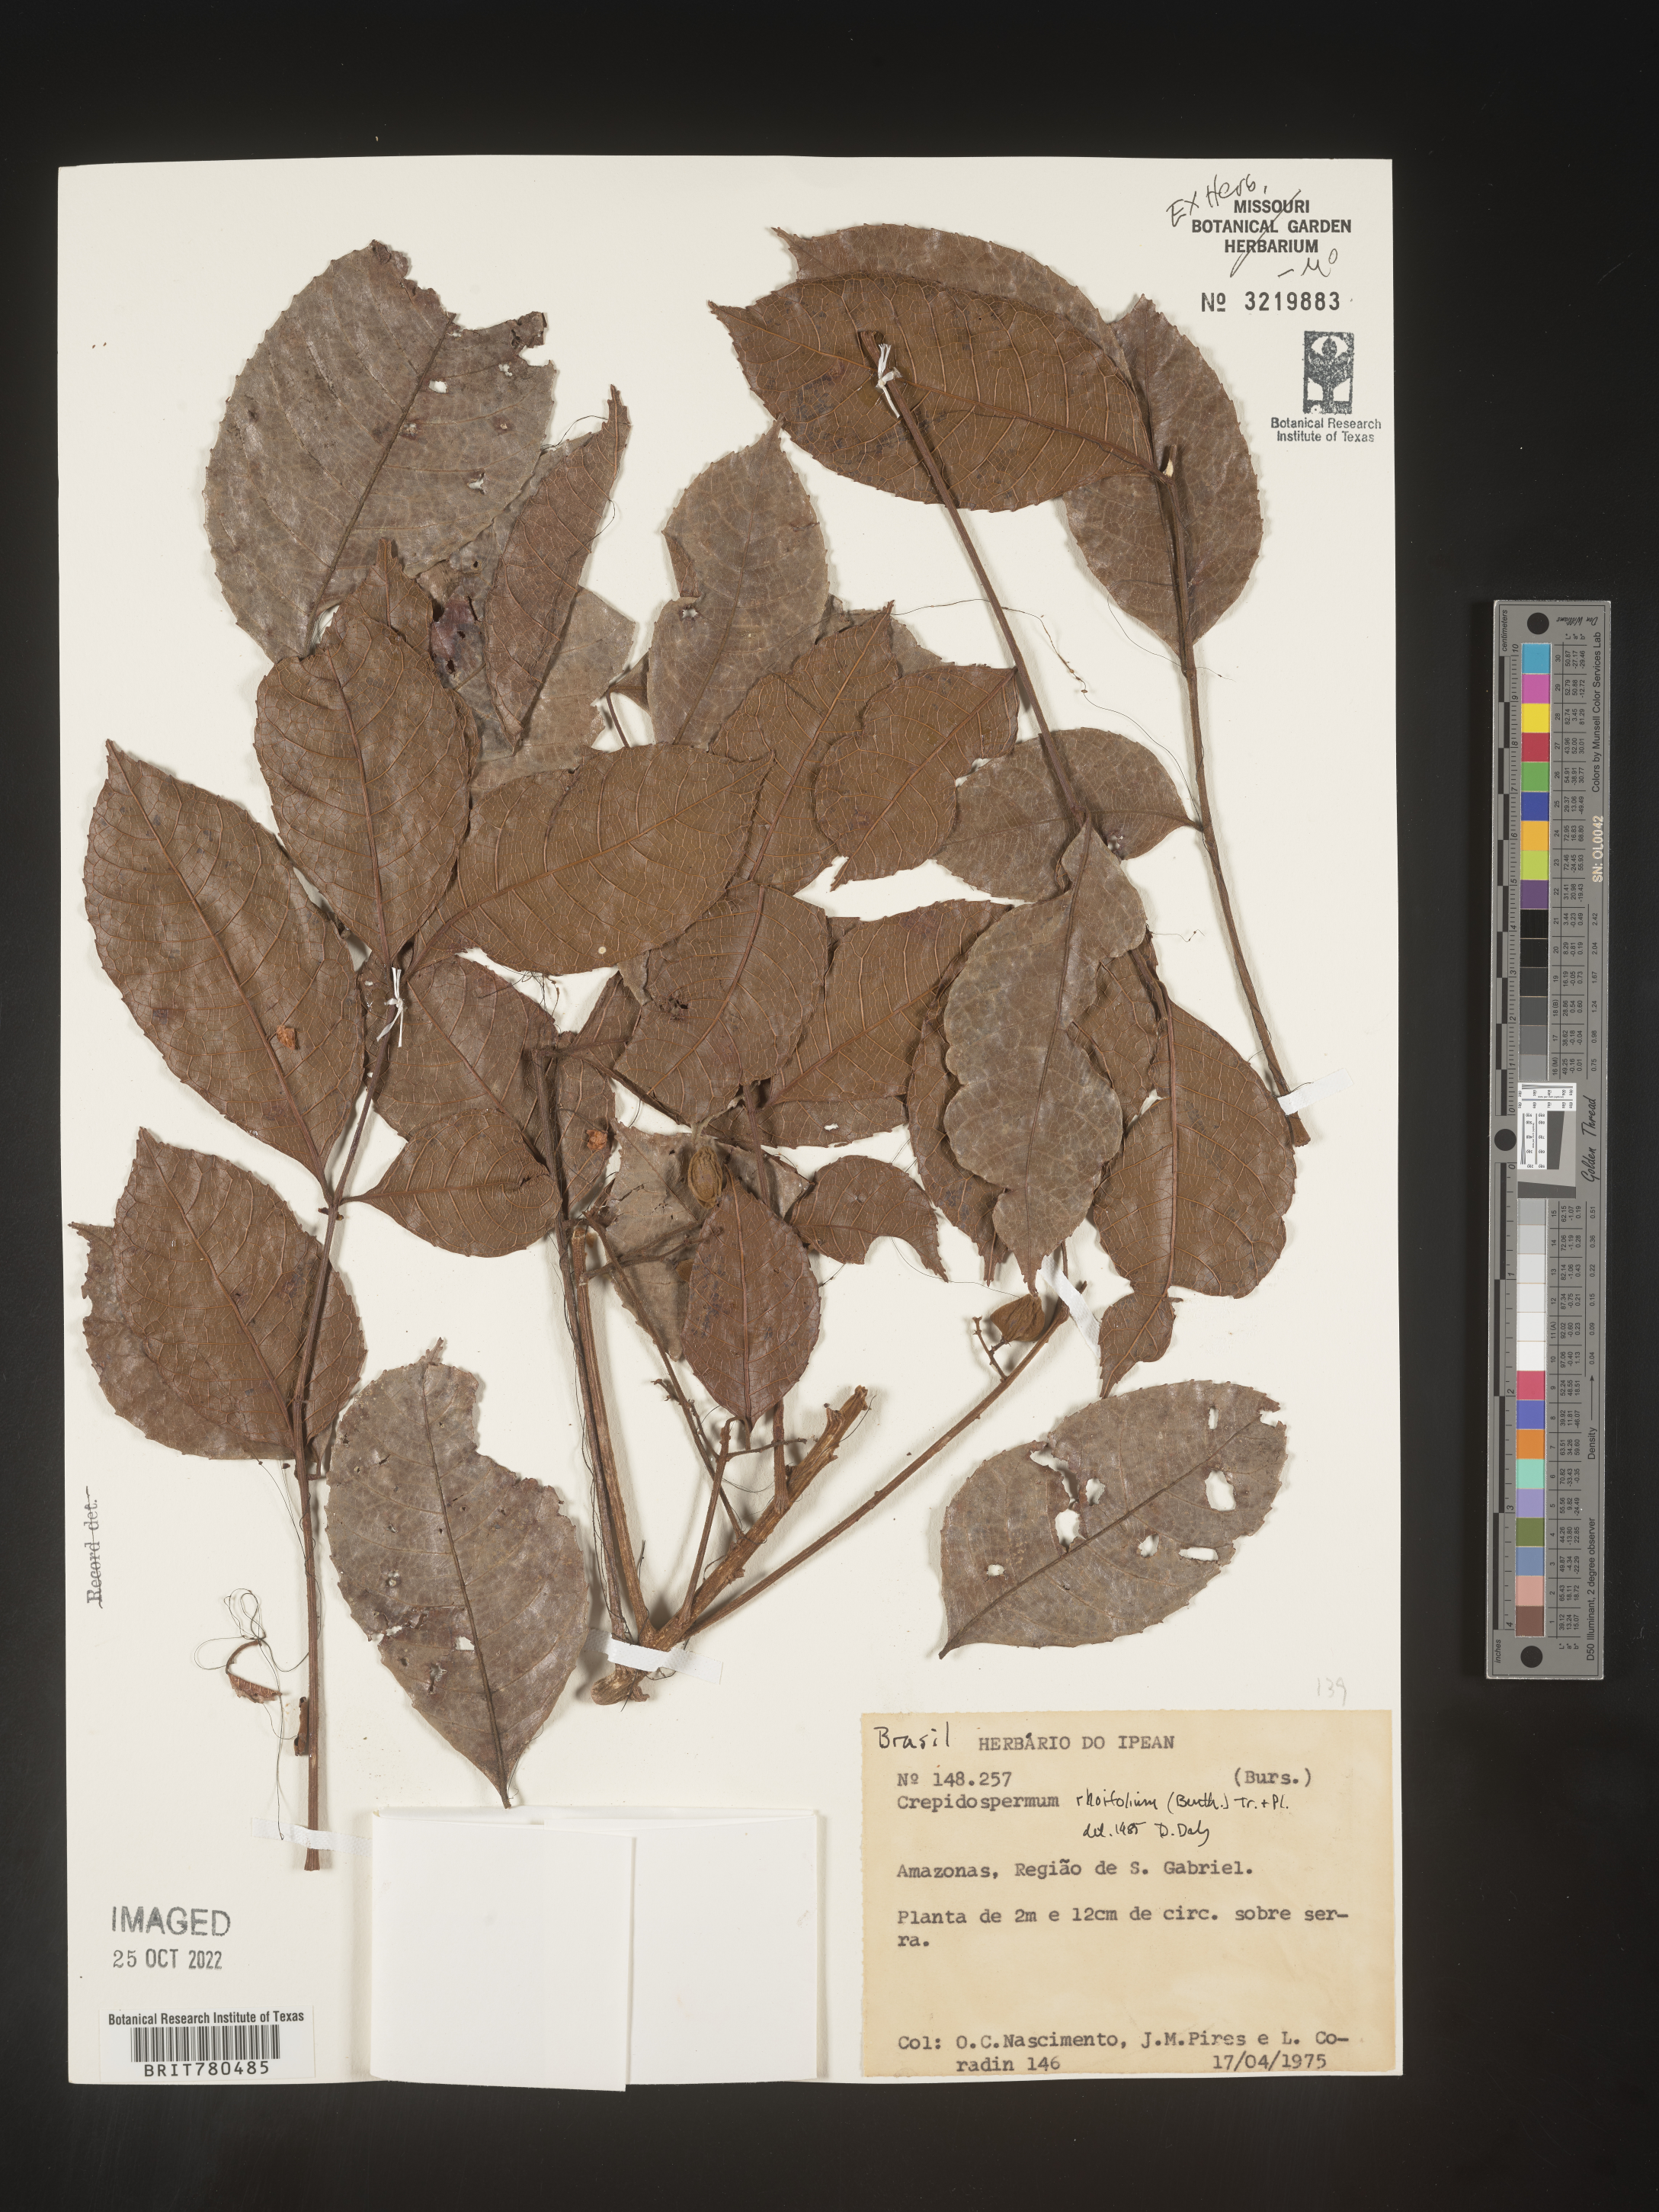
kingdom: Plantae
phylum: Tracheophyta
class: Magnoliopsida
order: Sapindales
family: Burseraceae
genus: Crepidospermum
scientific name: Crepidospermum
